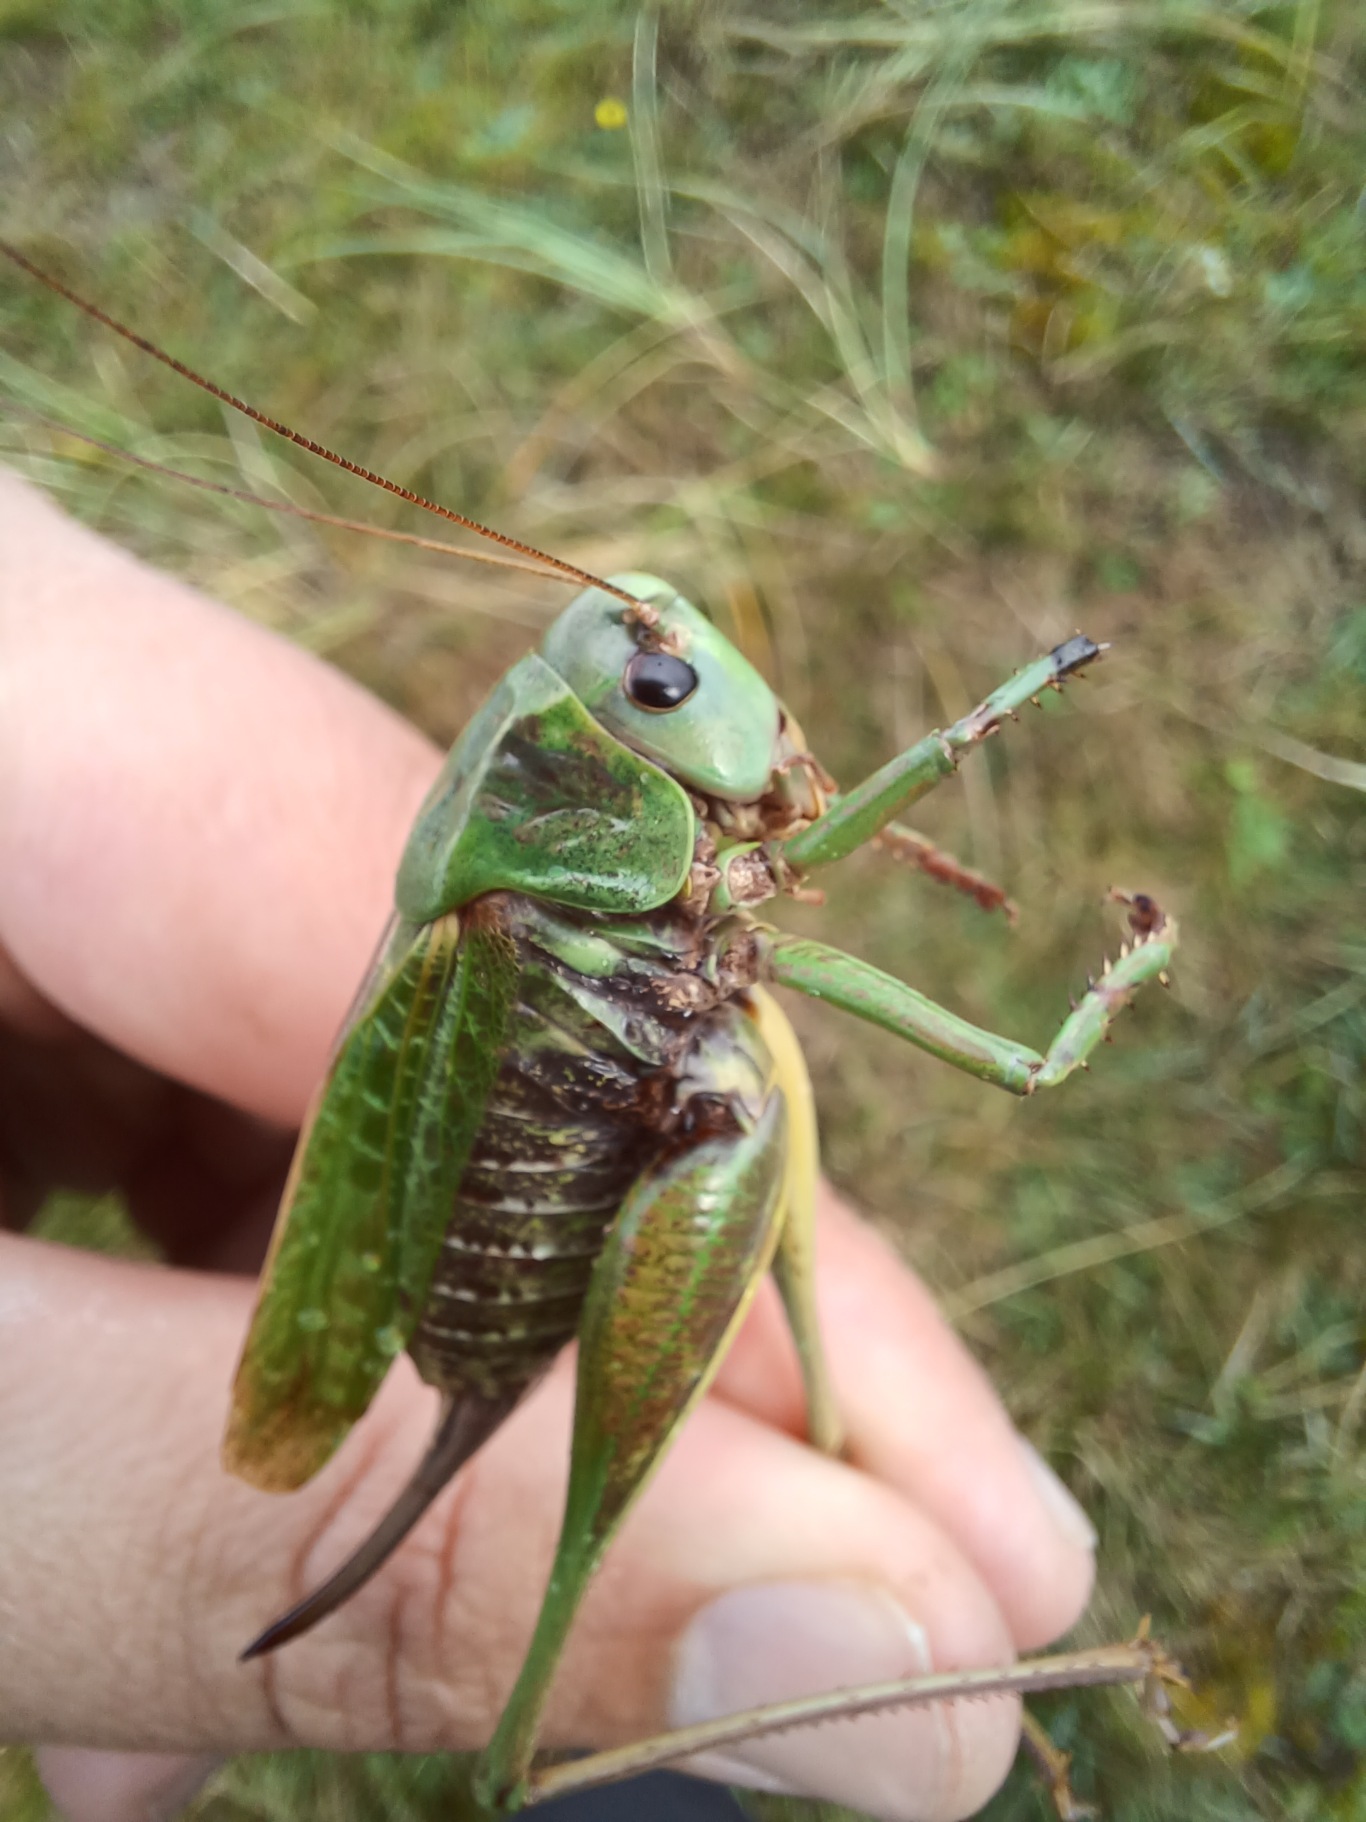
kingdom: Animalia
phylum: Arthropoda
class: Insecta
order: Orthoptera
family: Tettigoniidae
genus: Decticus
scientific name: Decticus verrucivorus
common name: Vortebider
